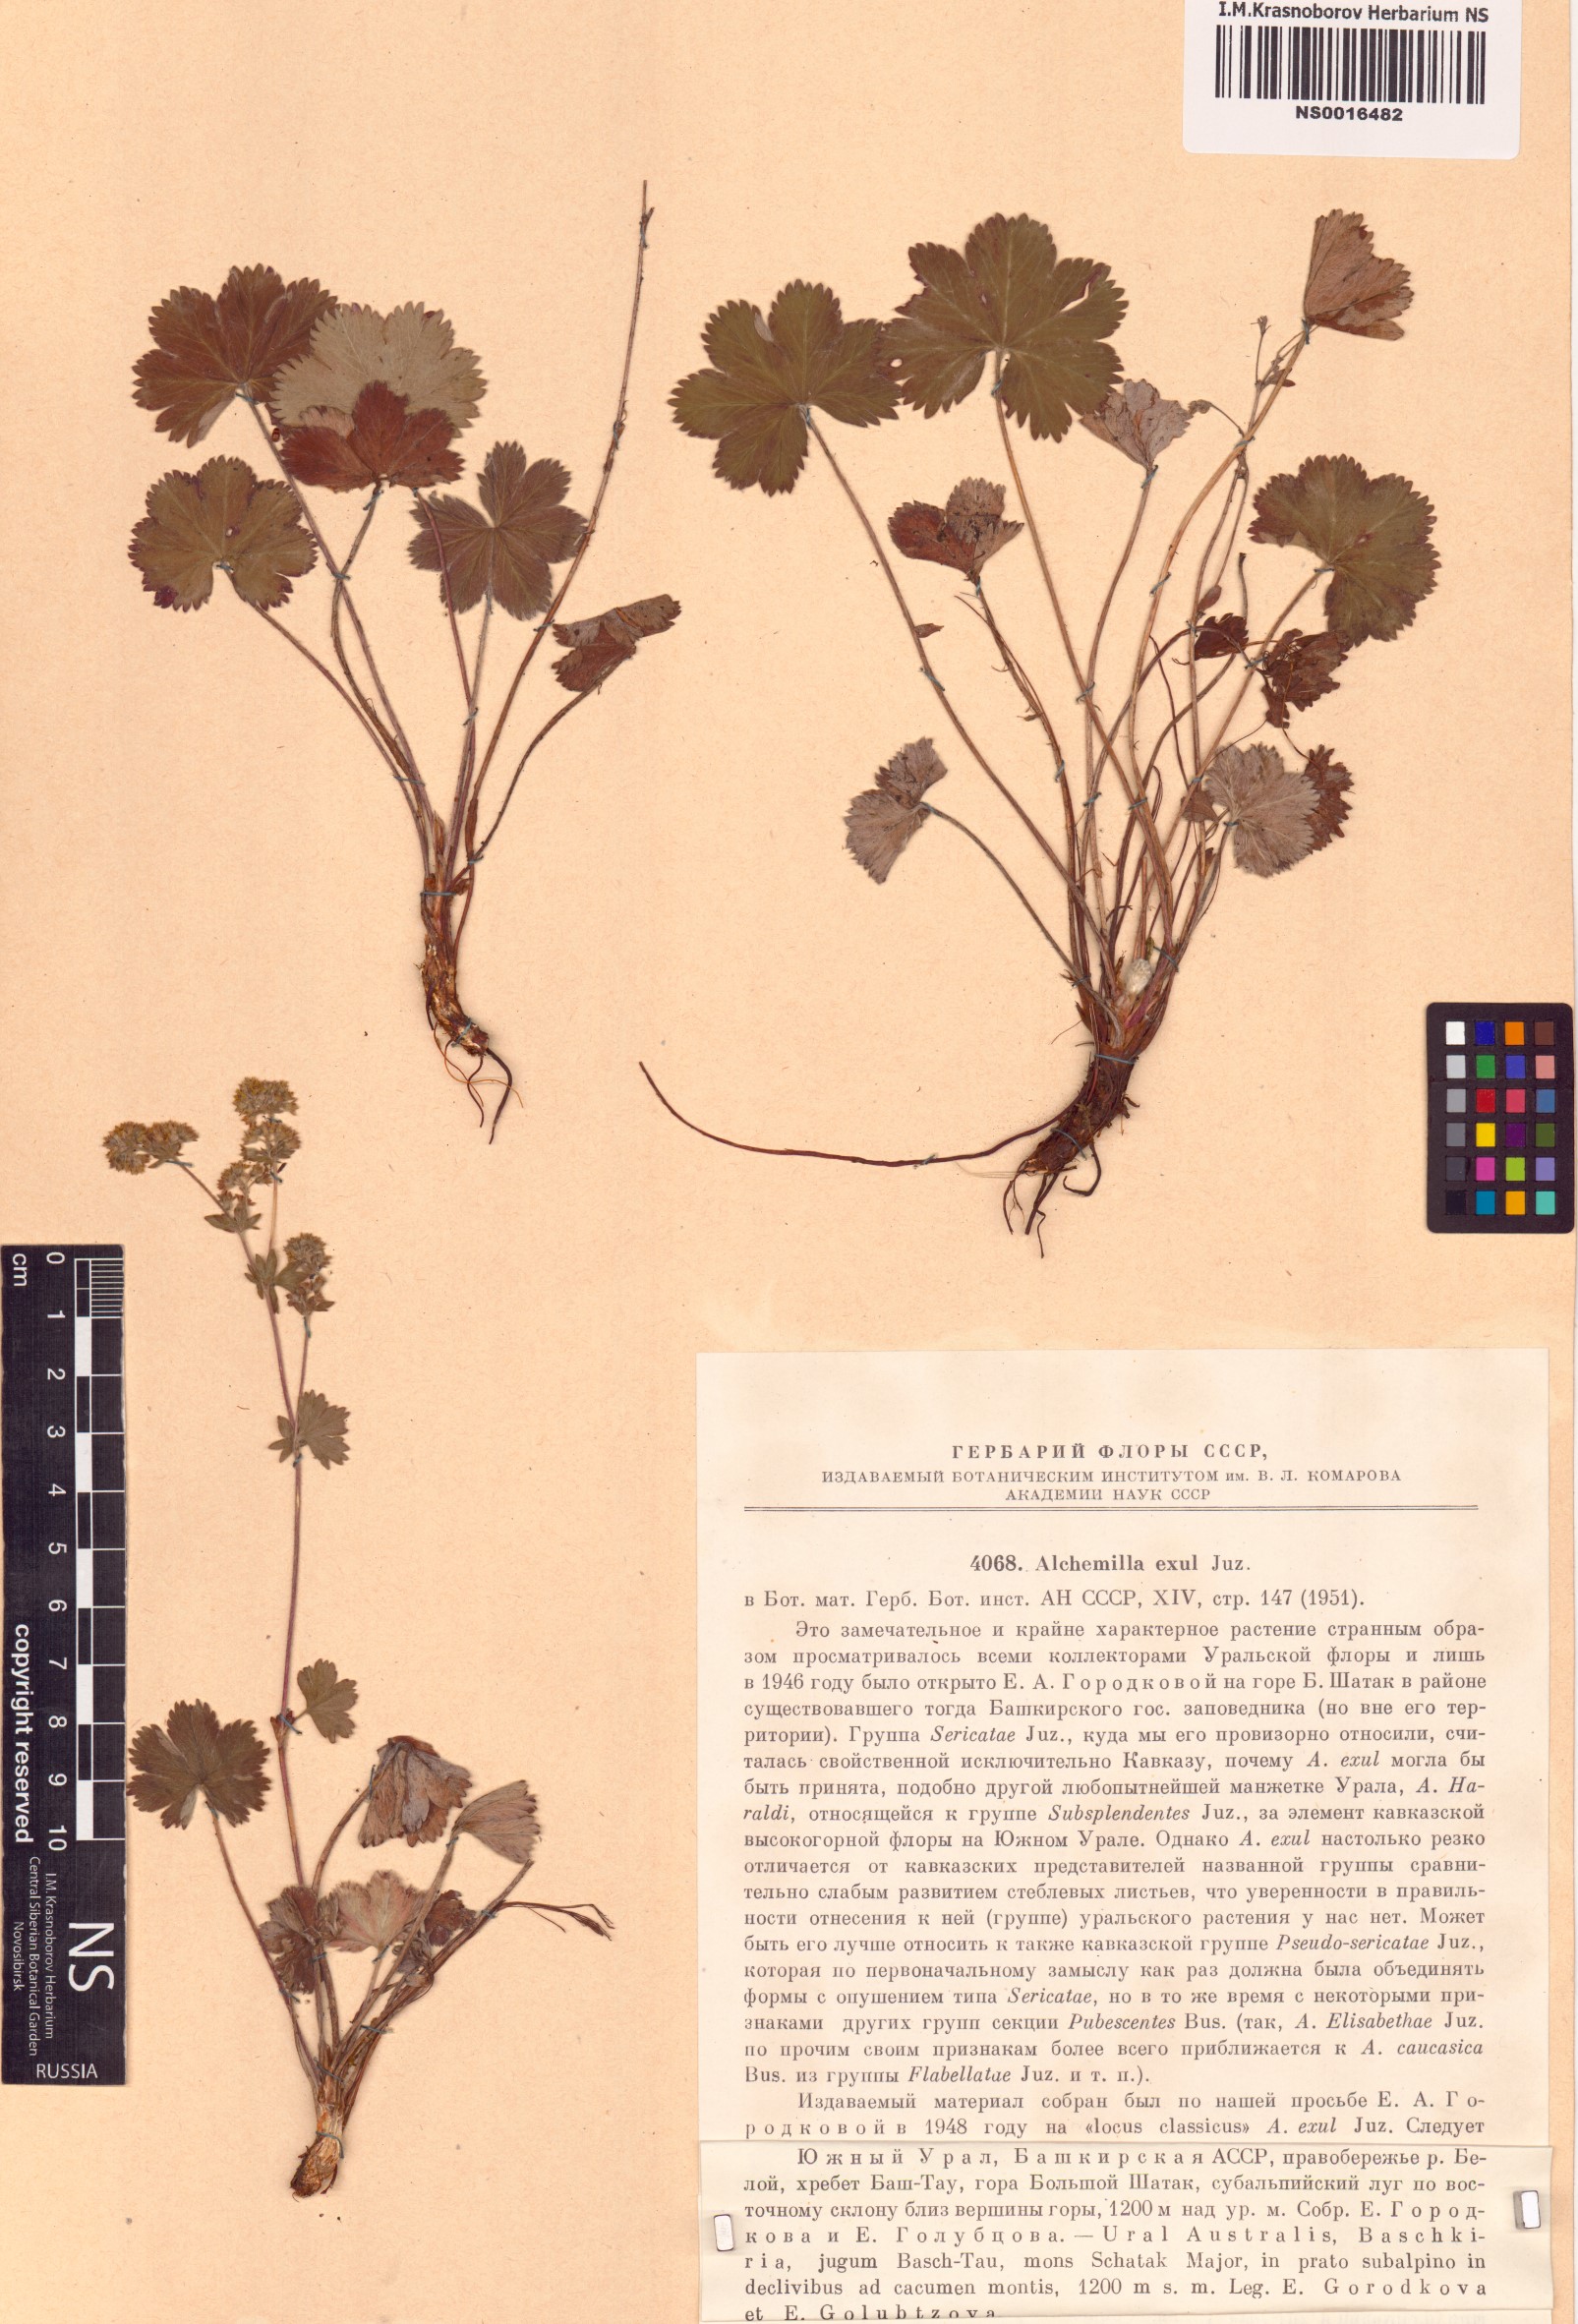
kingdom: Plantae
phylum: Tracheophyta
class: Magnoliopsida
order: Rosales
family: Rosaceae
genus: Alchemilla
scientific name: Alchemilla exul
